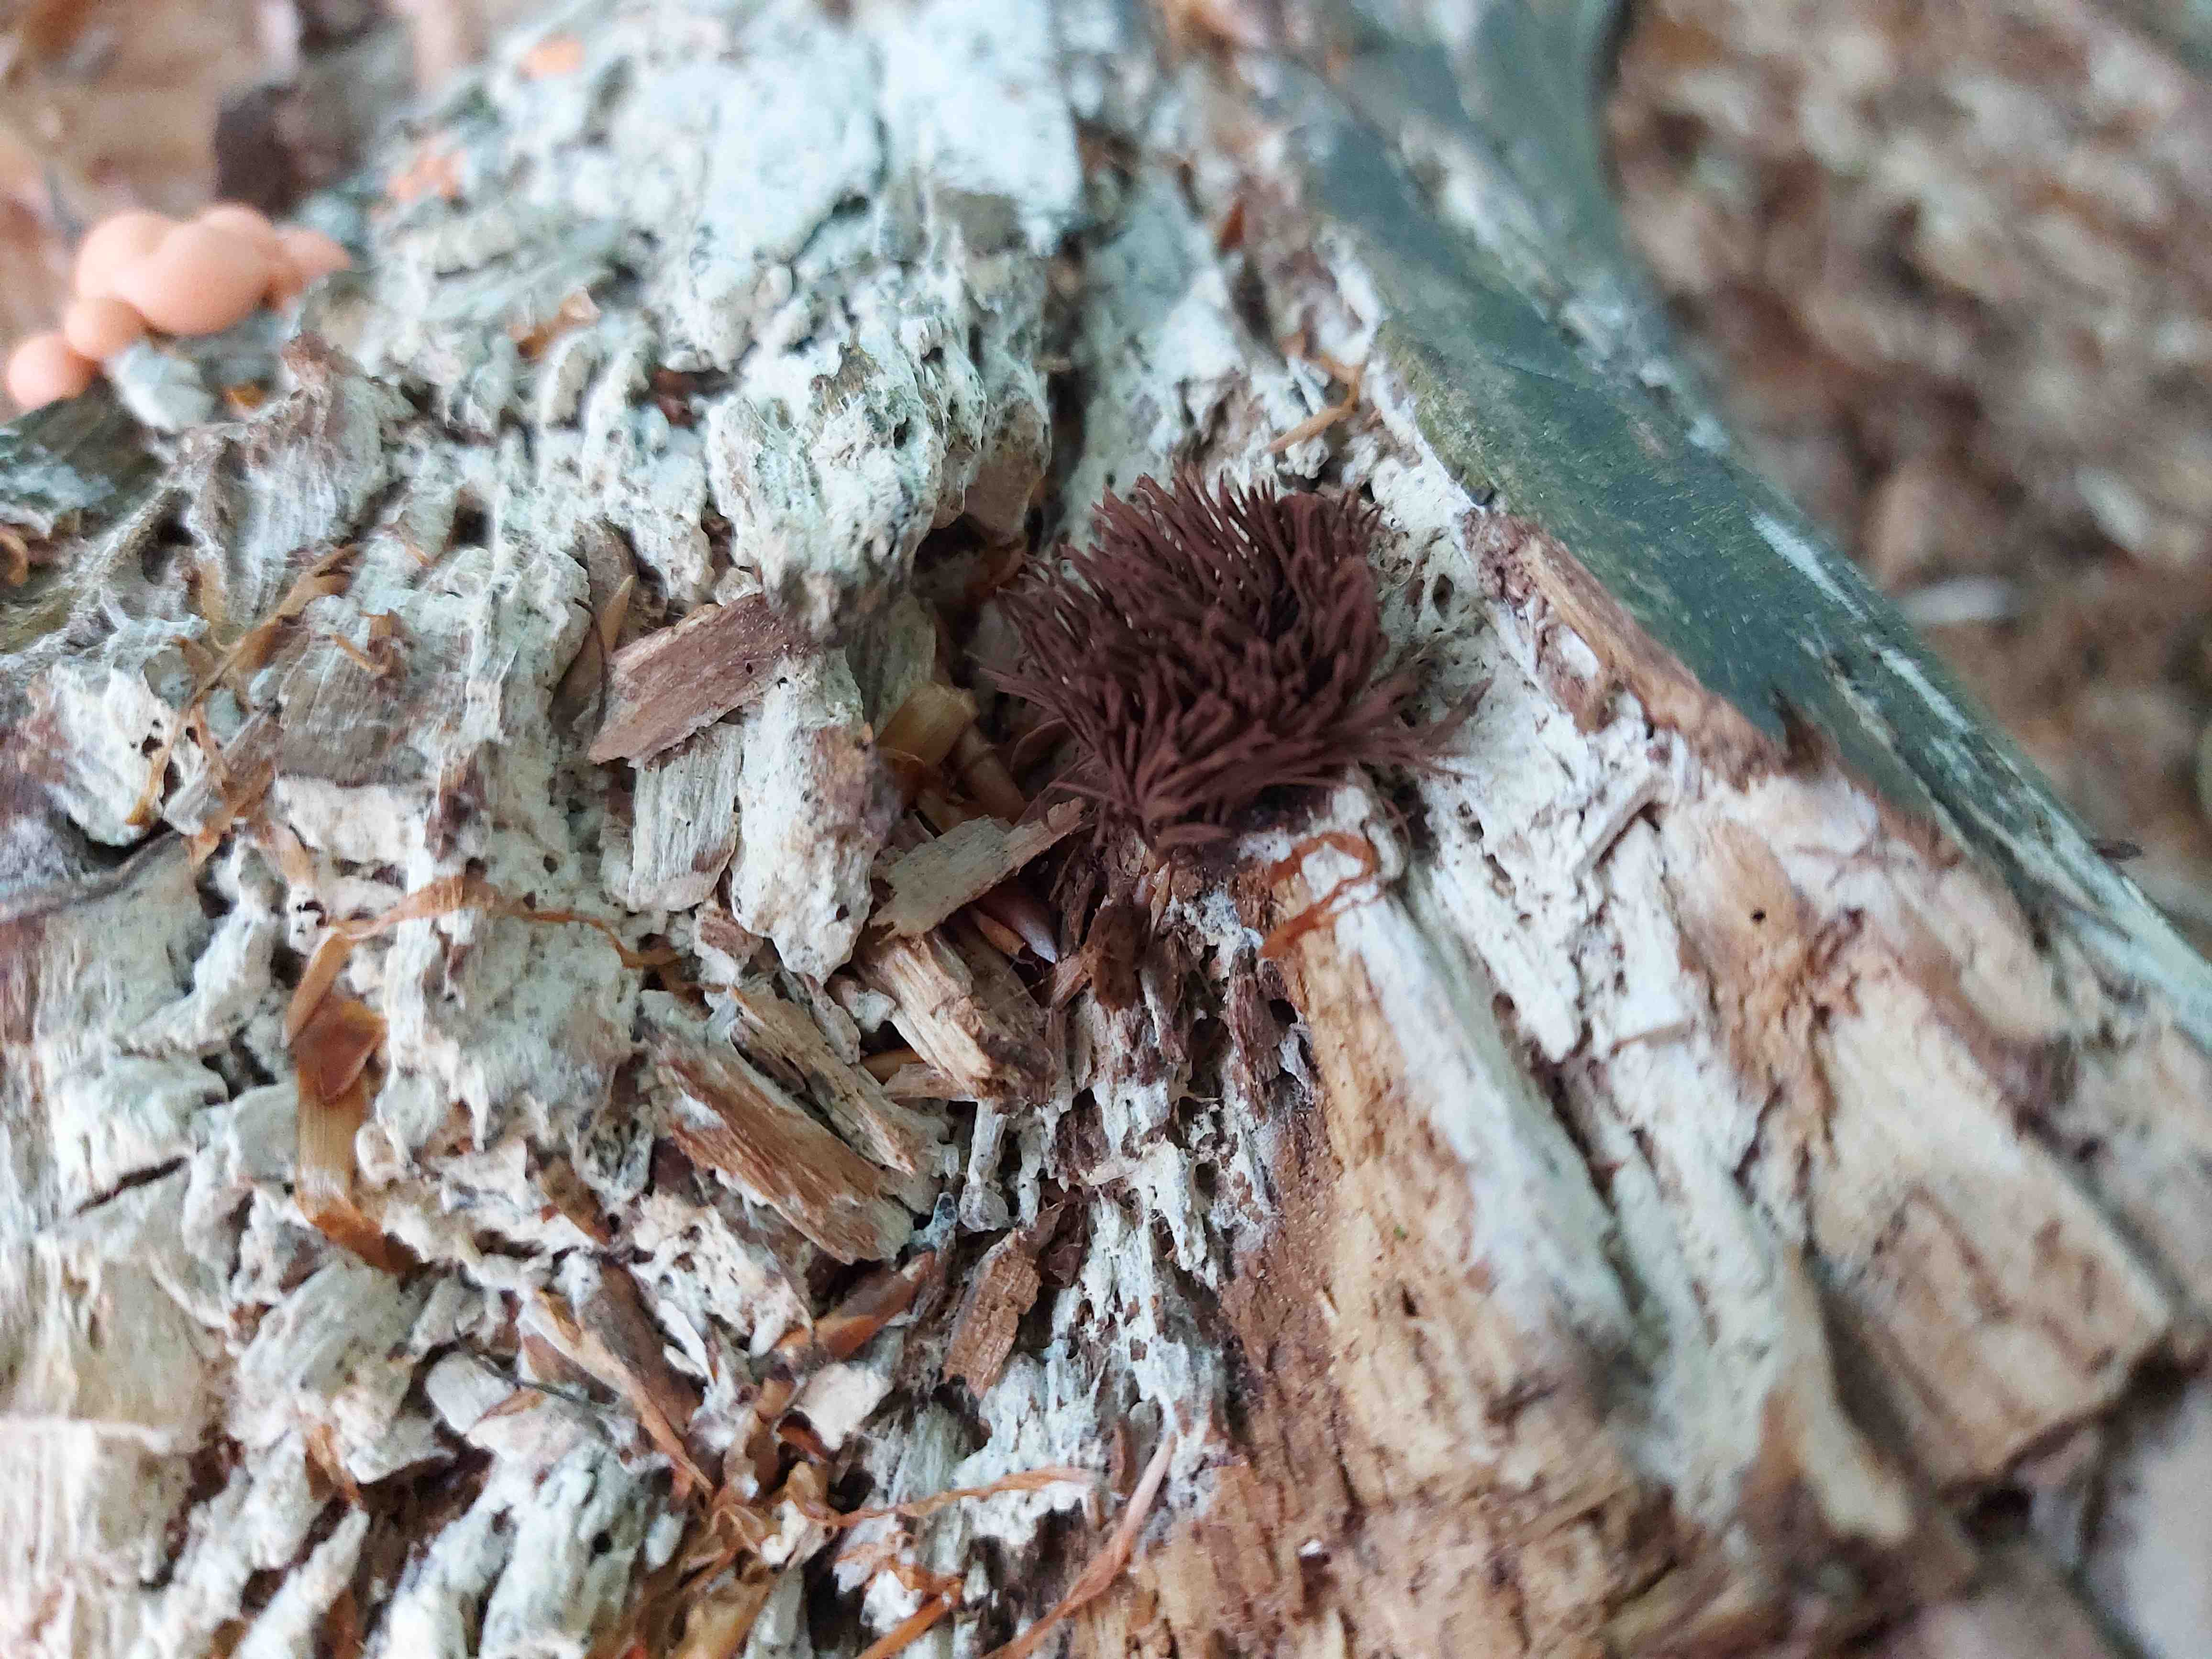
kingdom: Protozoa
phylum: Mycetozoa
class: Myxomycetes
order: Stemonitidales
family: Stemonitidaceae
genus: Stemonitis
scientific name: Stemonitis
